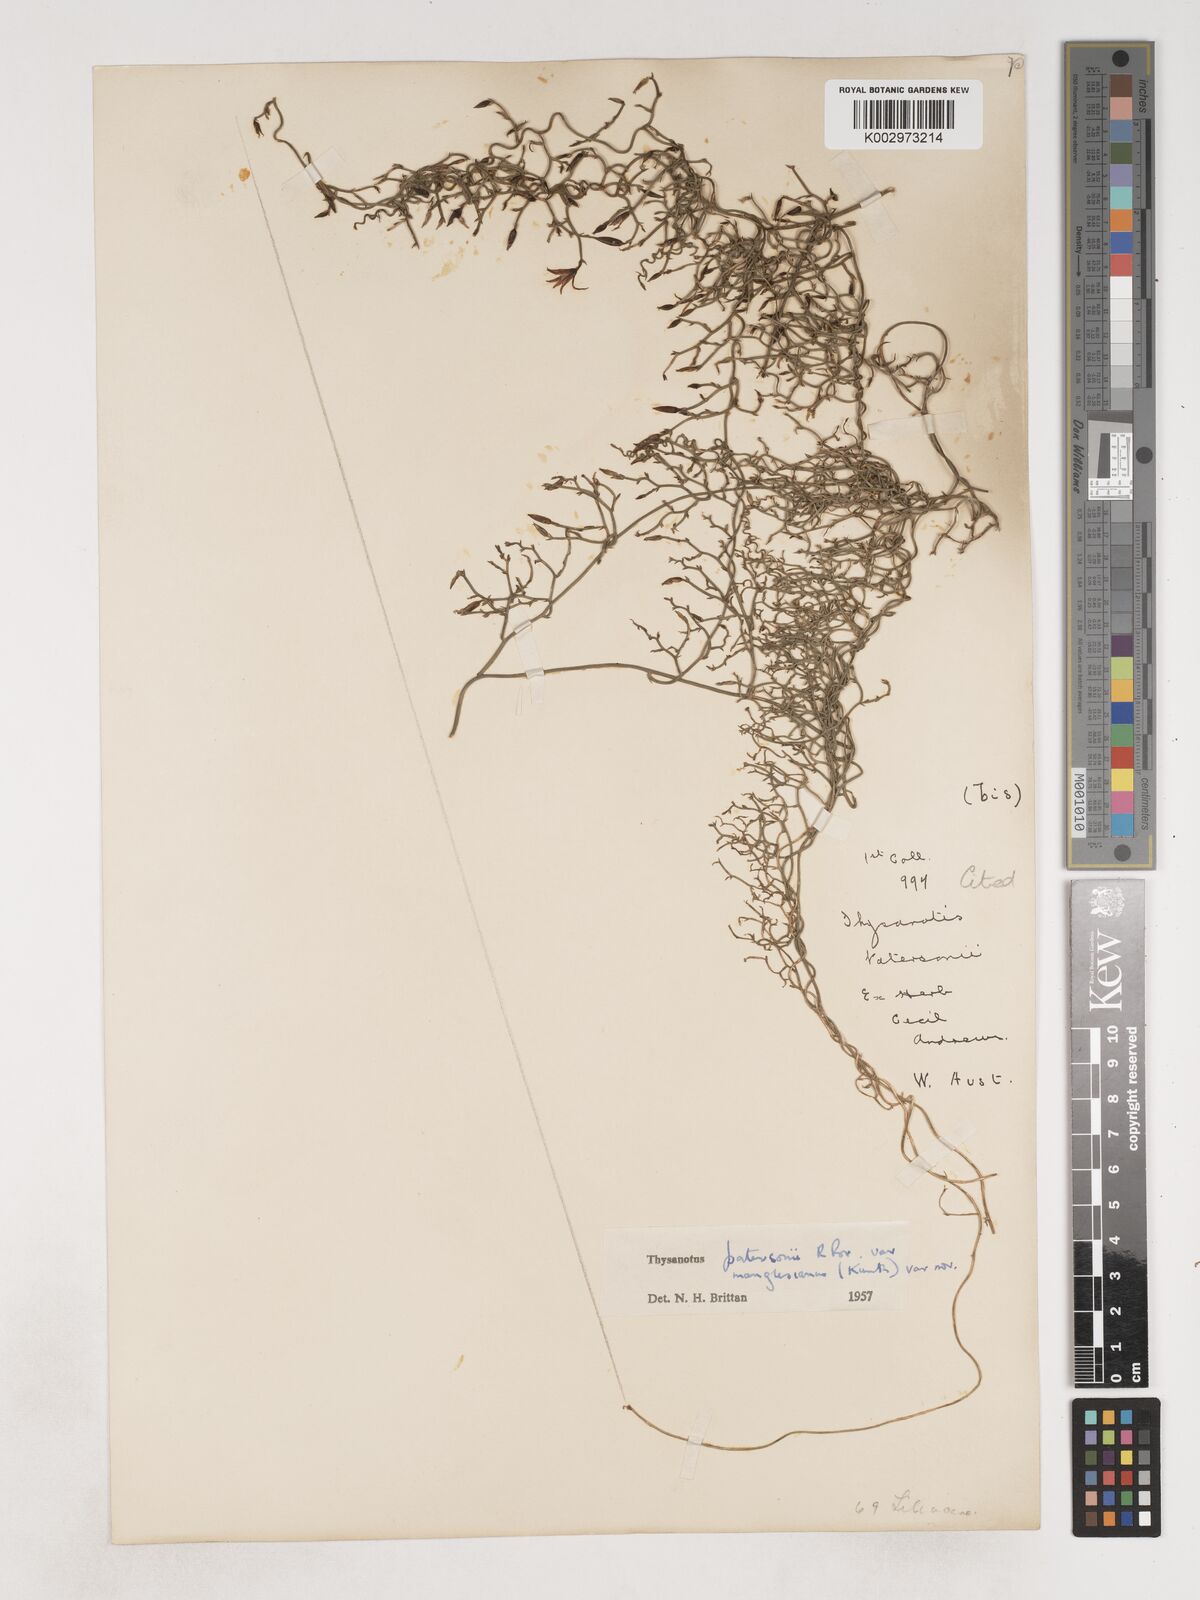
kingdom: Plantae
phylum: Tracheophyta
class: Liliopsida
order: Asparagales
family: Asparagaceae
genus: Thysanotus
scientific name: Thysanotus manglesianus
